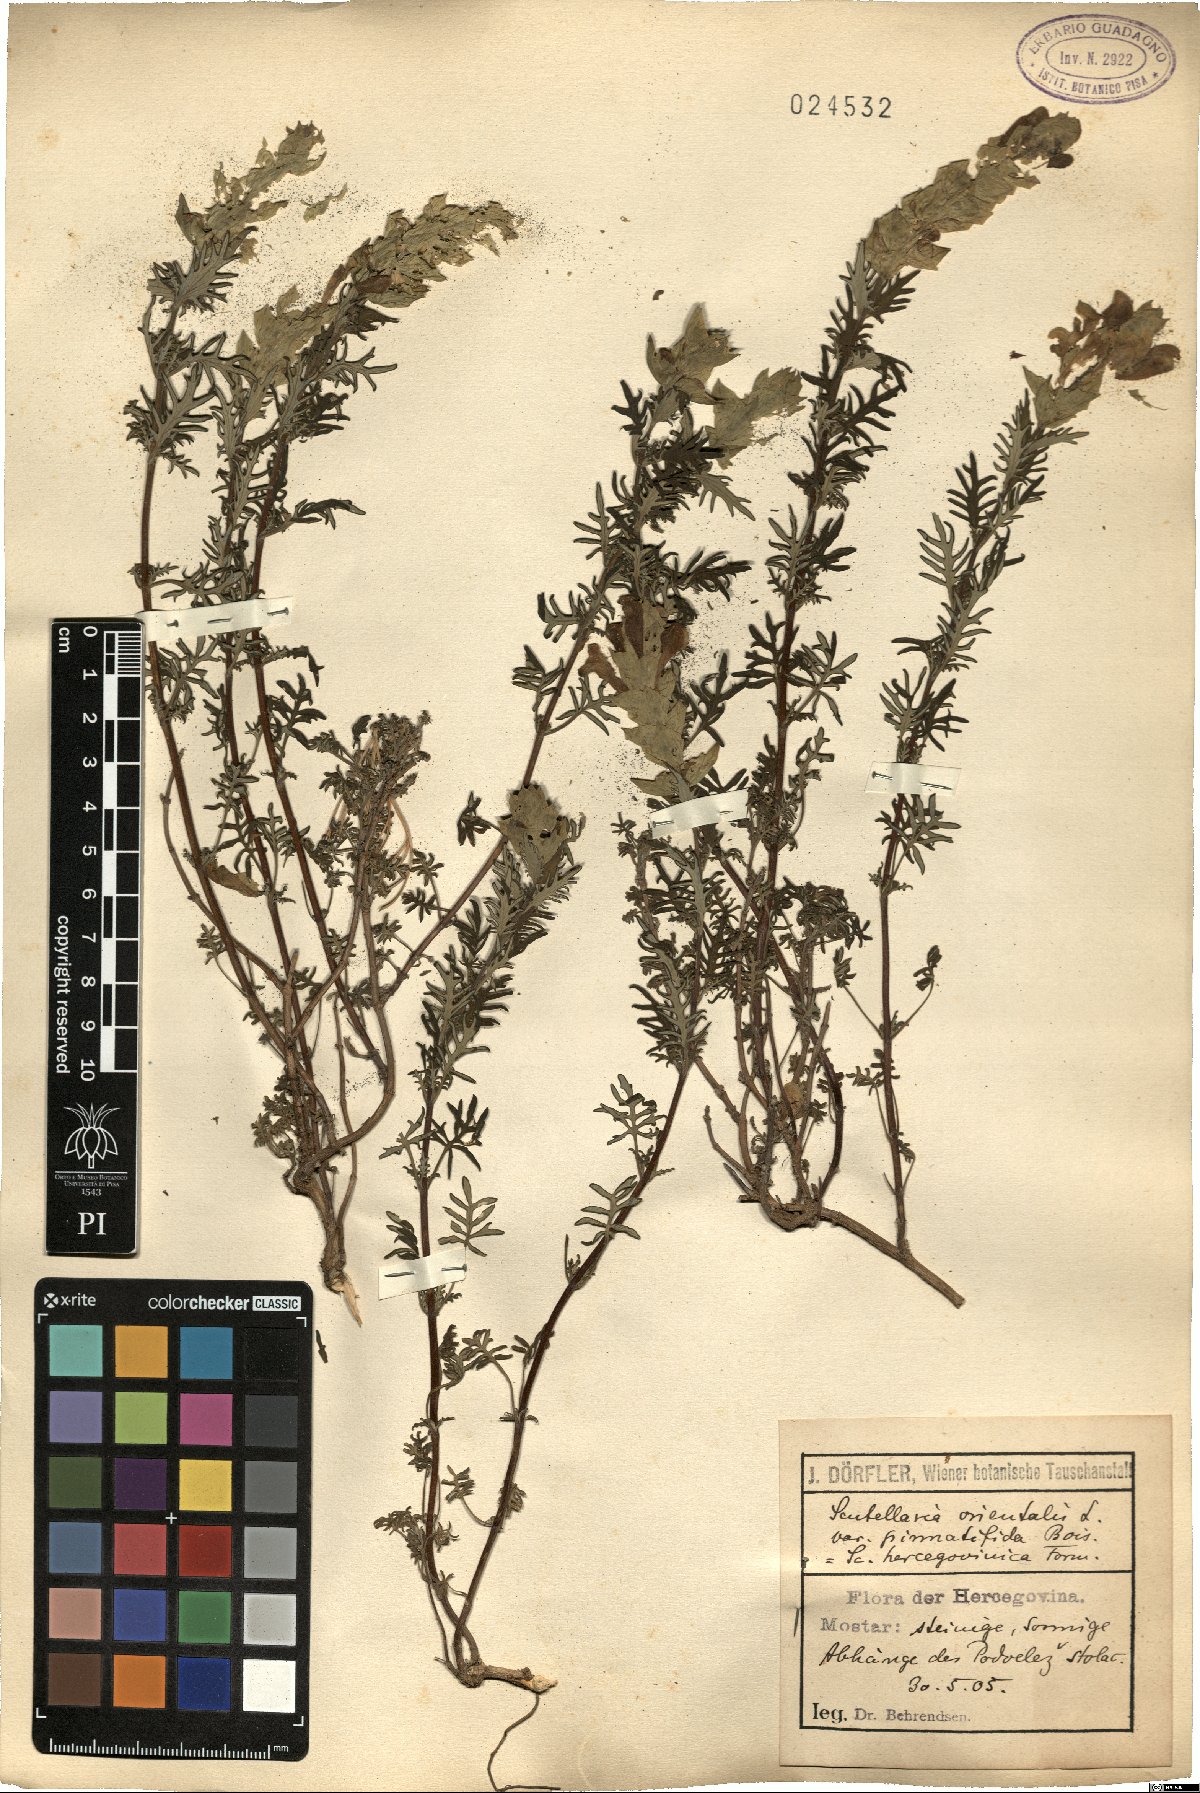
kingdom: Plantae
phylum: Tracheophyta
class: Magnoliopsida
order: Lamiales
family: Lamiaceae
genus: Scutellaria
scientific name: Scutellaria orientalis
